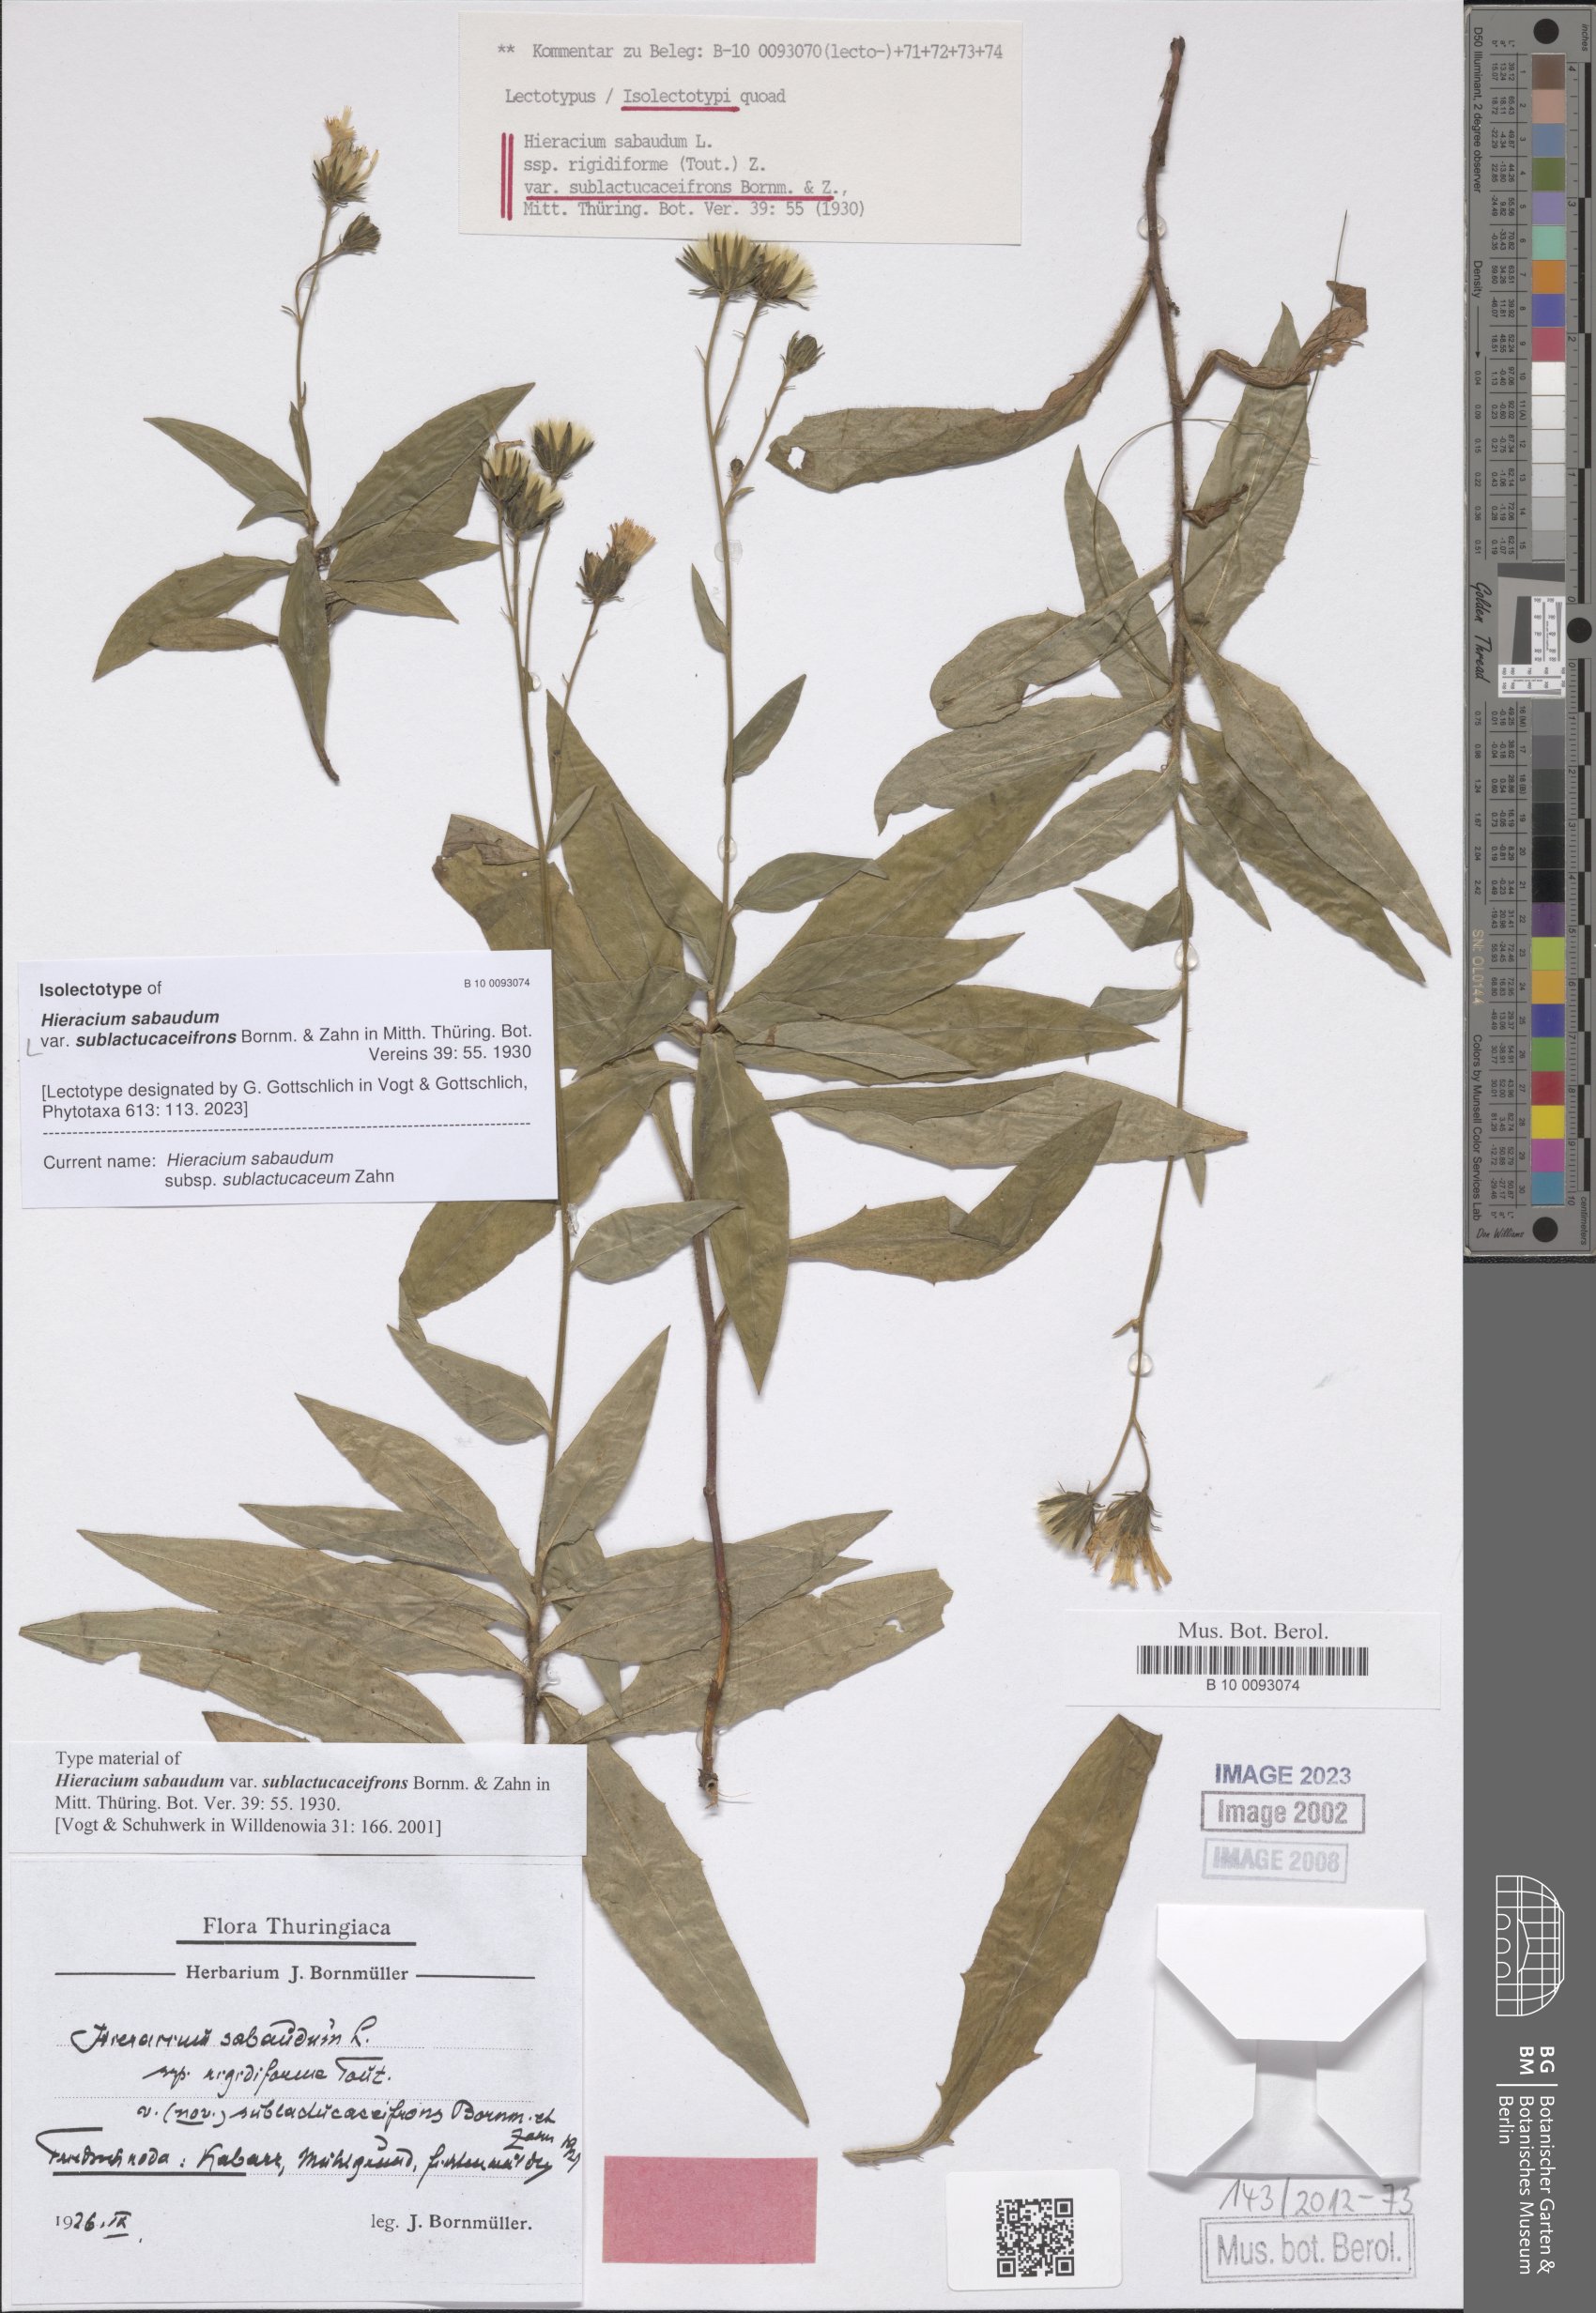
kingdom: Plantae
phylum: Tracheophyta
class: Magnoliopsida
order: Asterales
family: Asteraceae
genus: Hieracium
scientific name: Hieracium sabaudum
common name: New england hawkweed
